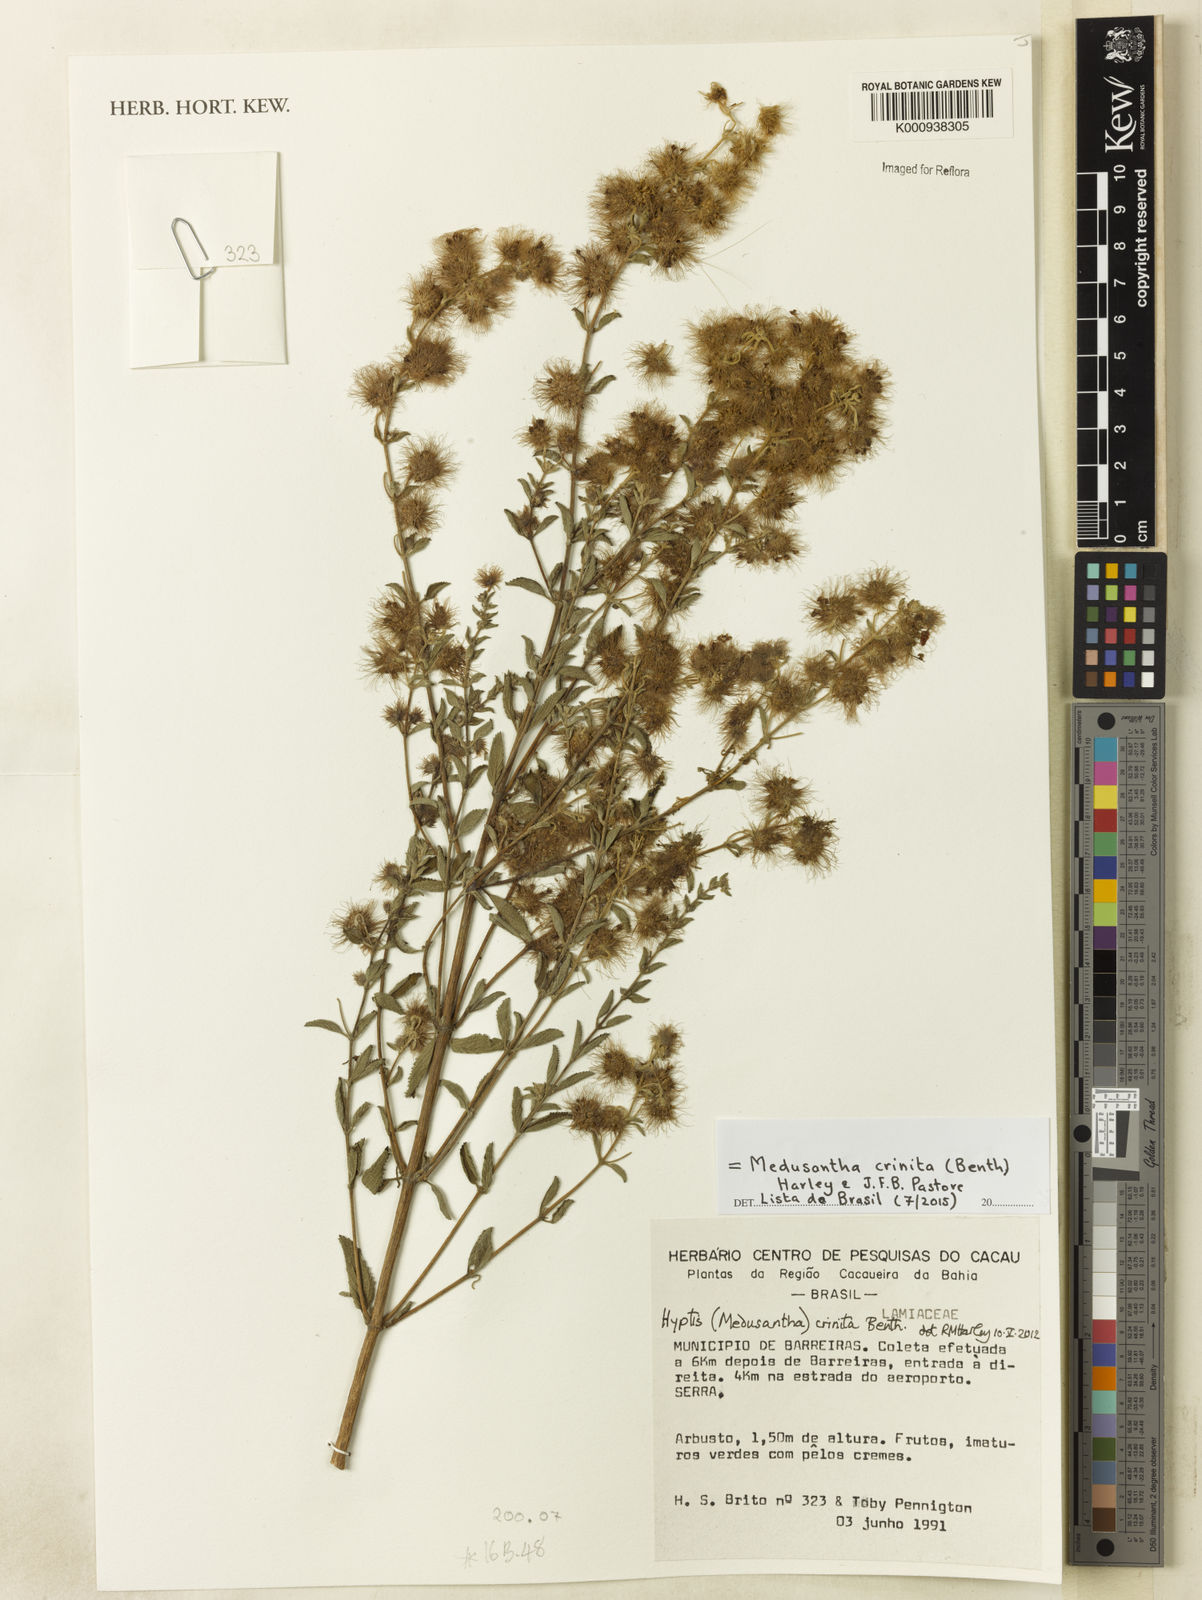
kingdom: Plantae
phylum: Tracheophyta
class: Magnoliopsida
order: Lamiales
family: Lamiaceae
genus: Medusantha
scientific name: Medusantha crinita
